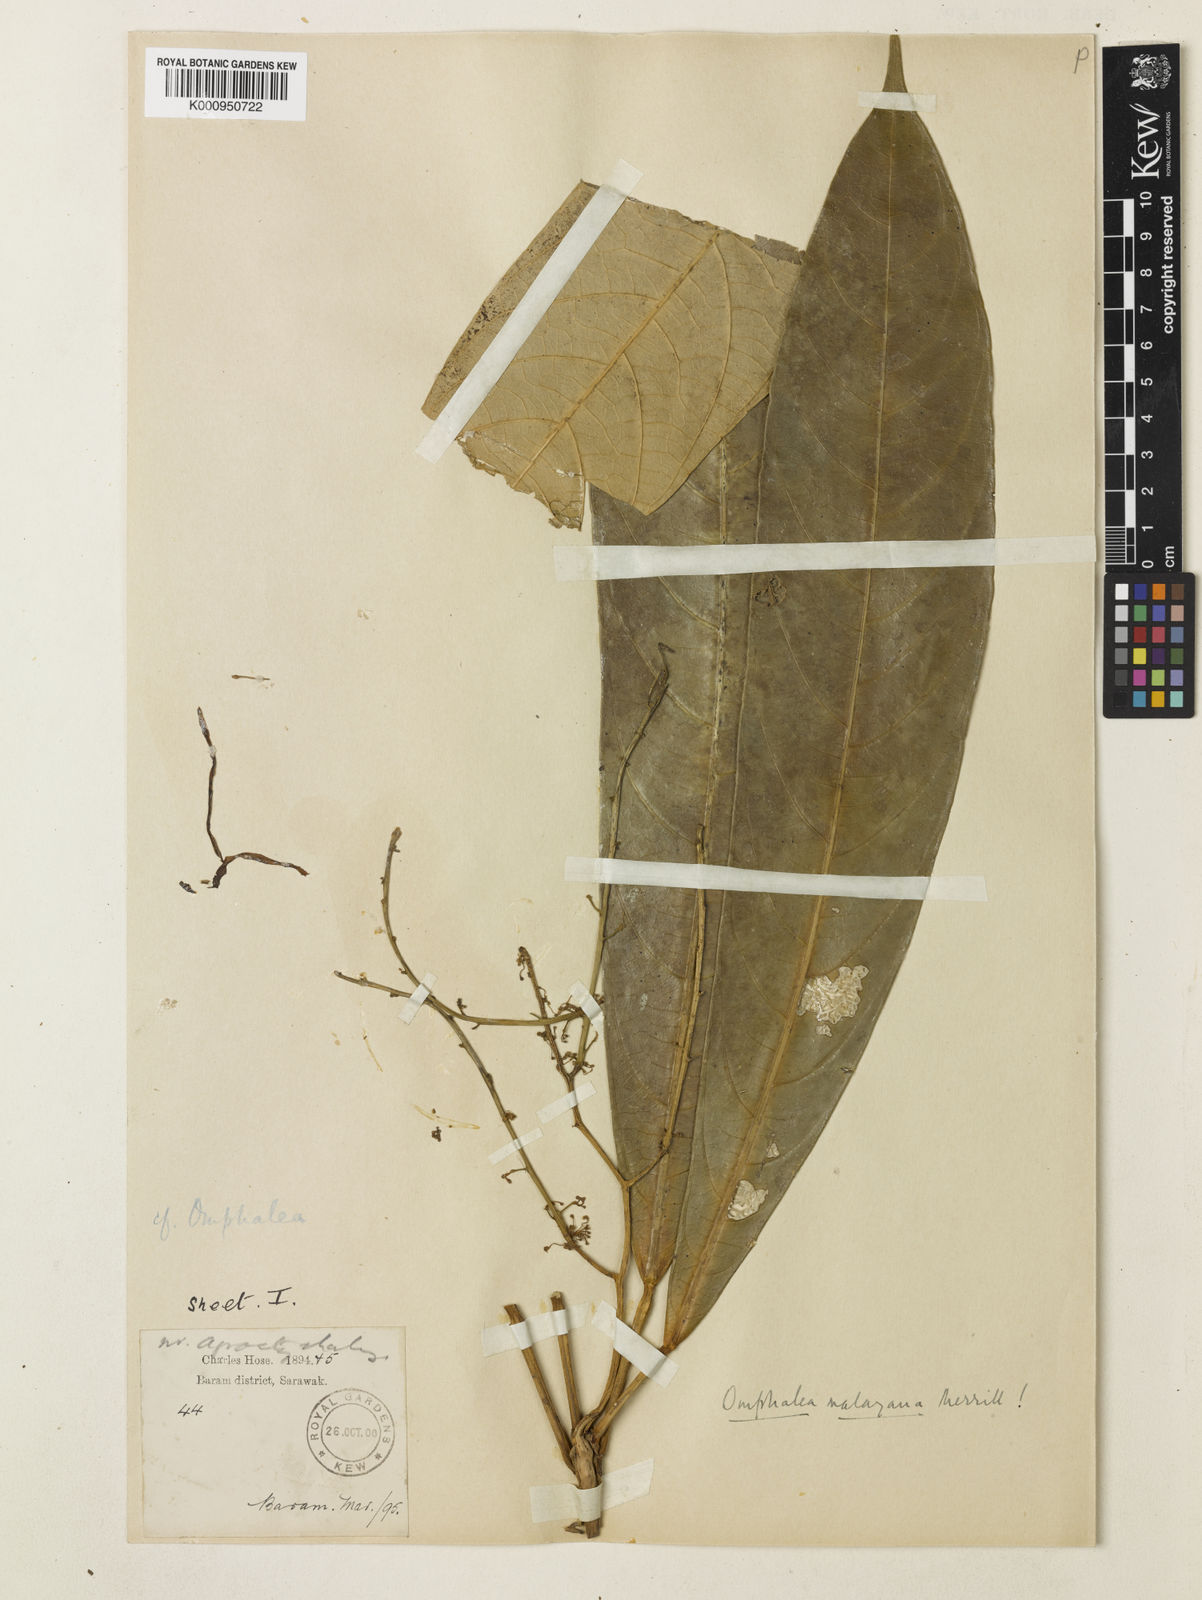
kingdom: Plantae
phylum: Tracheophyta
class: Magnoliopsida
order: Malpighiales
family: Euphorbiaceae
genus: Omphalea
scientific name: Omphalea malayana
